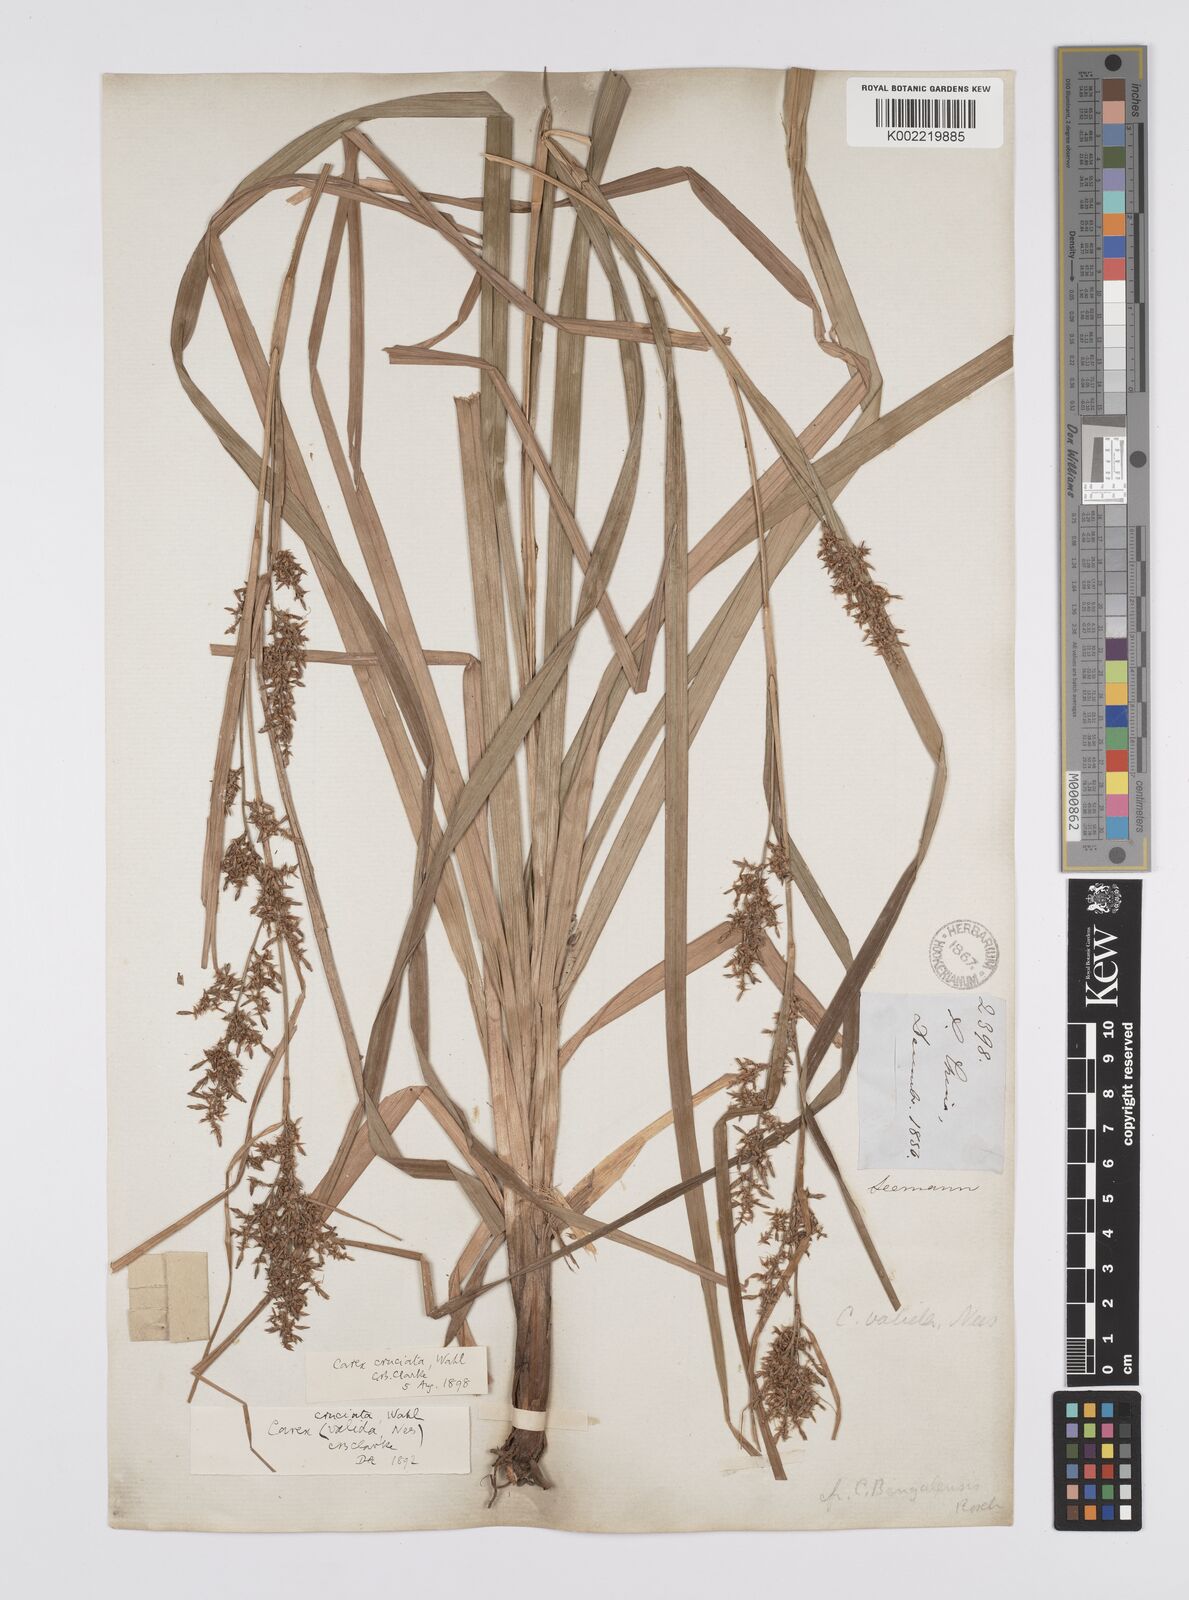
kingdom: Plantae
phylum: Tracheophyta
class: Liliopsida
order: Poales
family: Cyperaceae
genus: Carex
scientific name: Carex cruciata
